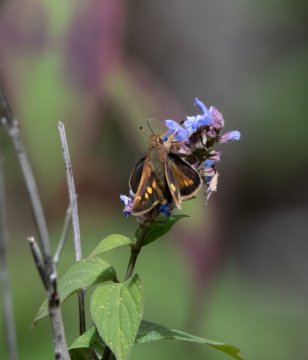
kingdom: Animalia
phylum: Arthropoda
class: Insecta
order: Lepidoptera
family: Hesperiidae
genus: Lon
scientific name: Lon melane
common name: Umber Skipper
